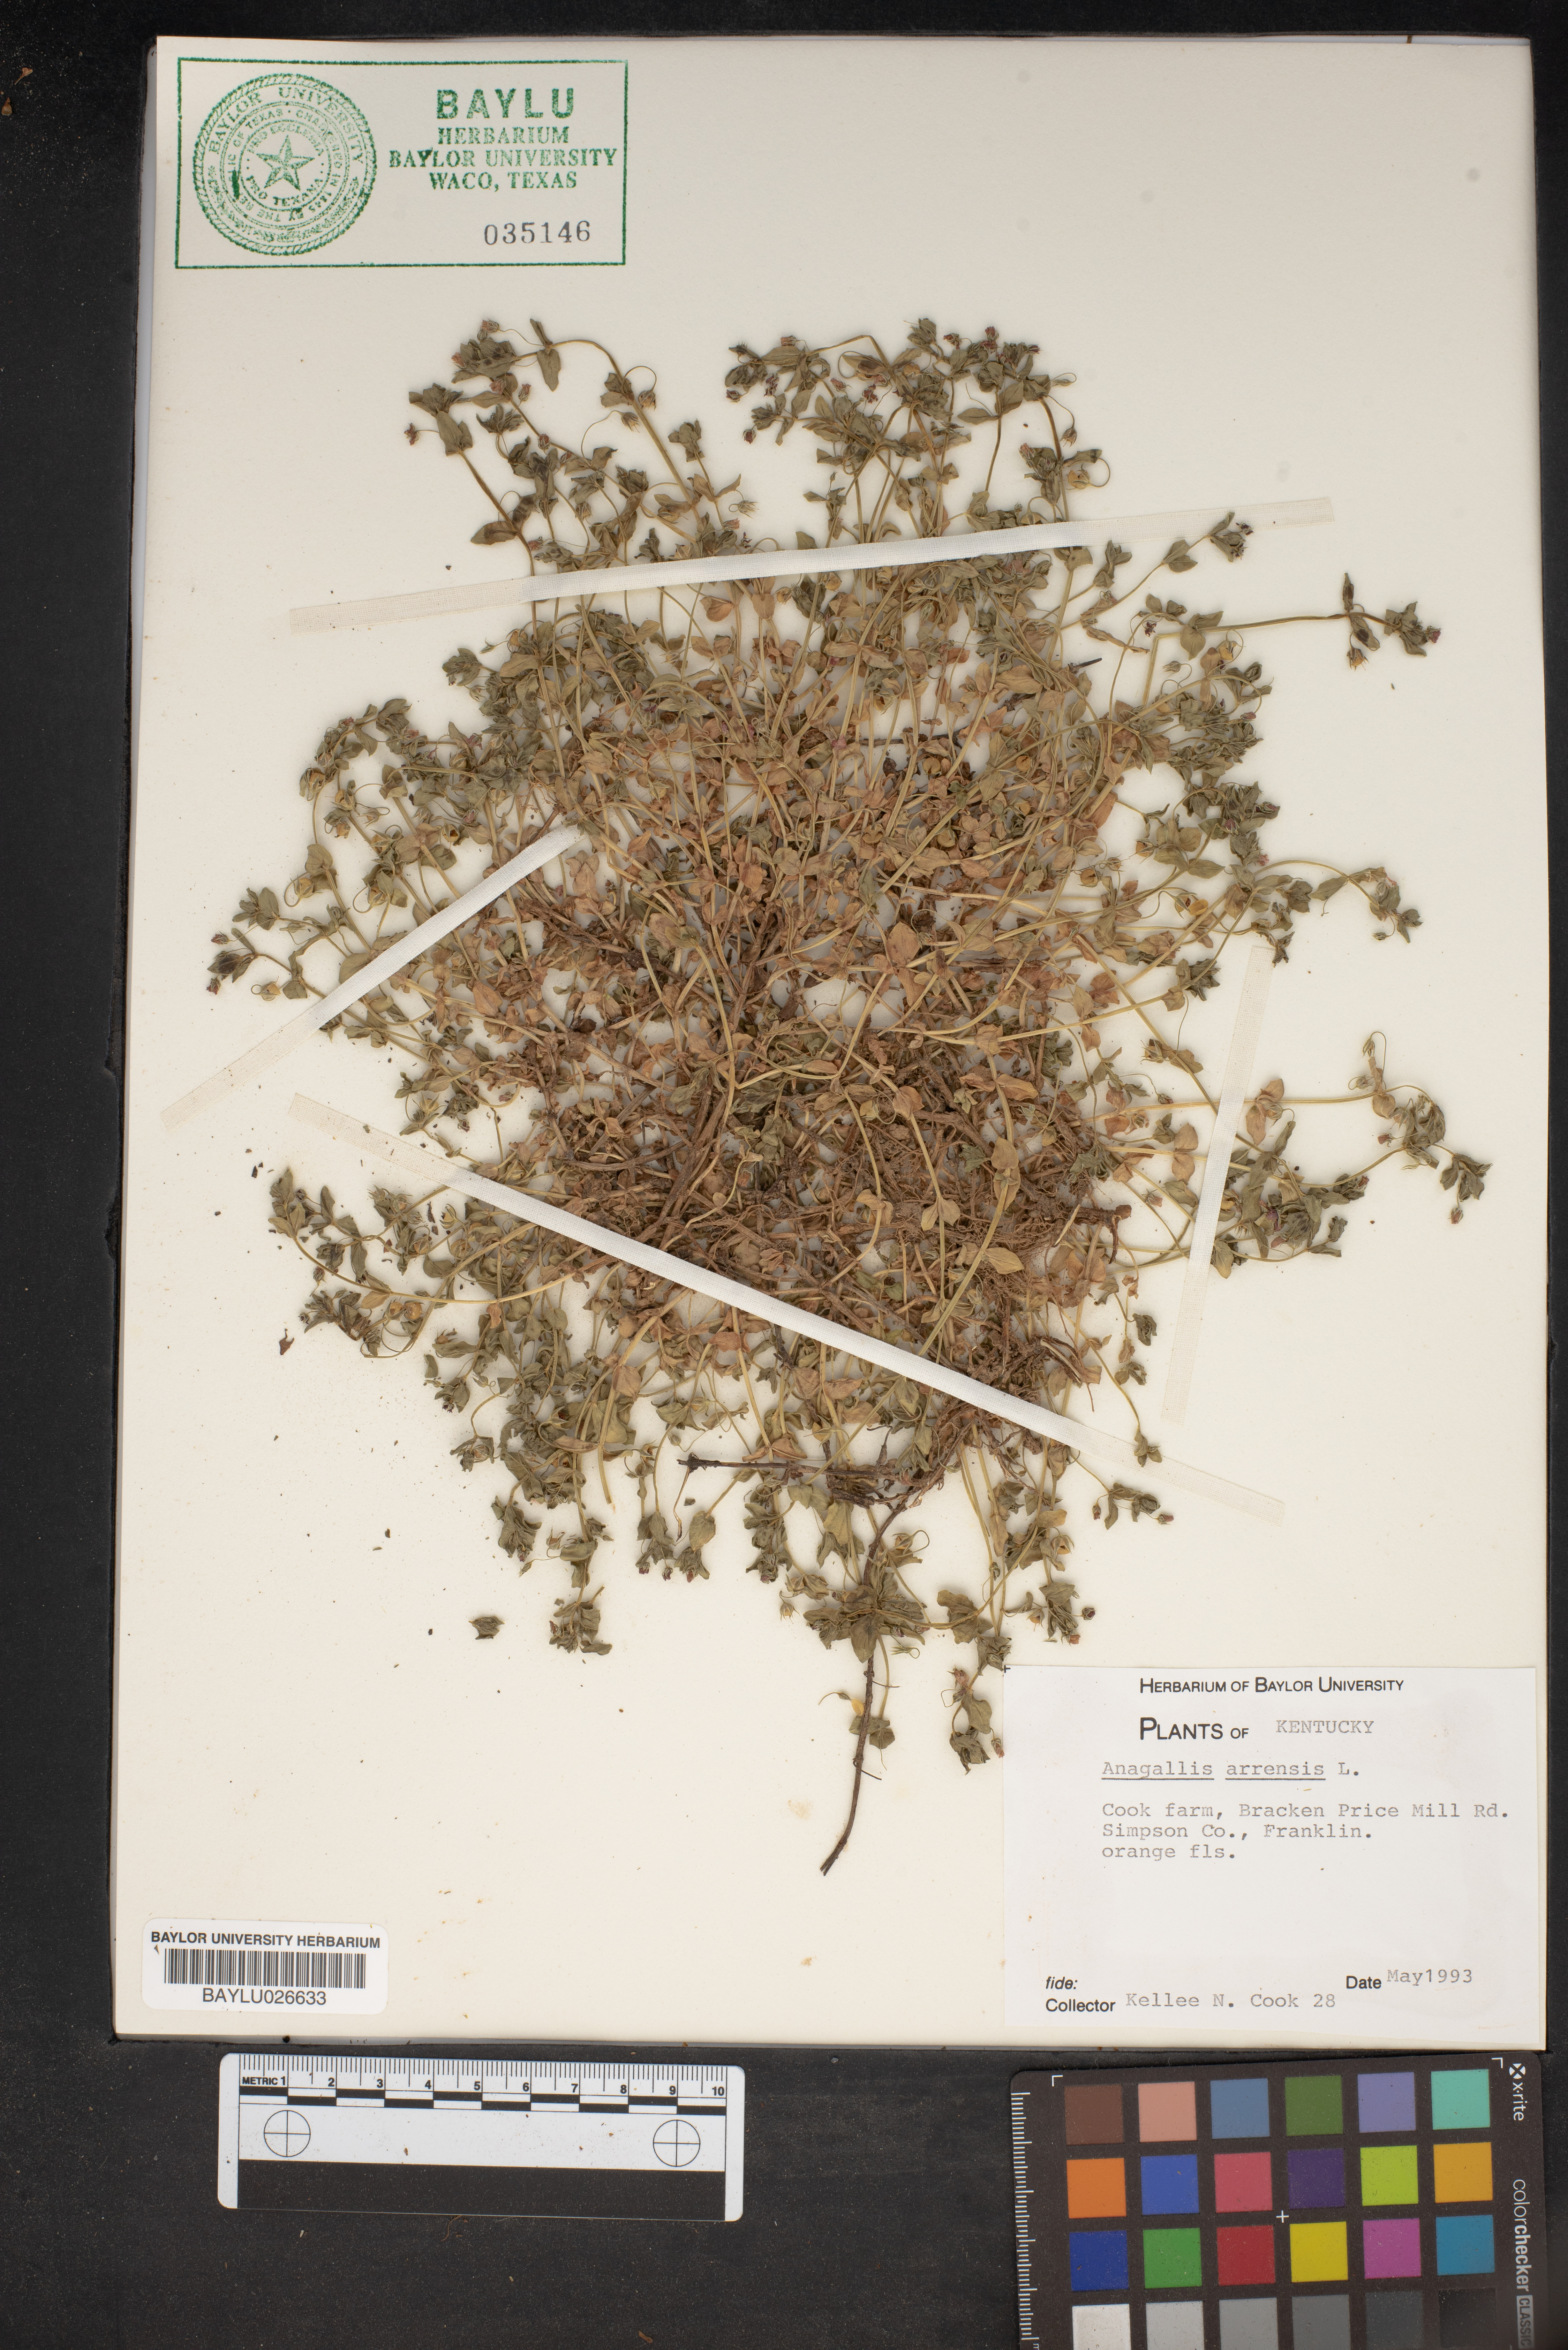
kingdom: Plantae
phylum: Tracheophyta
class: Magnoliopsida
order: Ericales
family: Primulaceae
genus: Lysimachia
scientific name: Lysimachia arvensis
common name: Scarlet pimpernel
